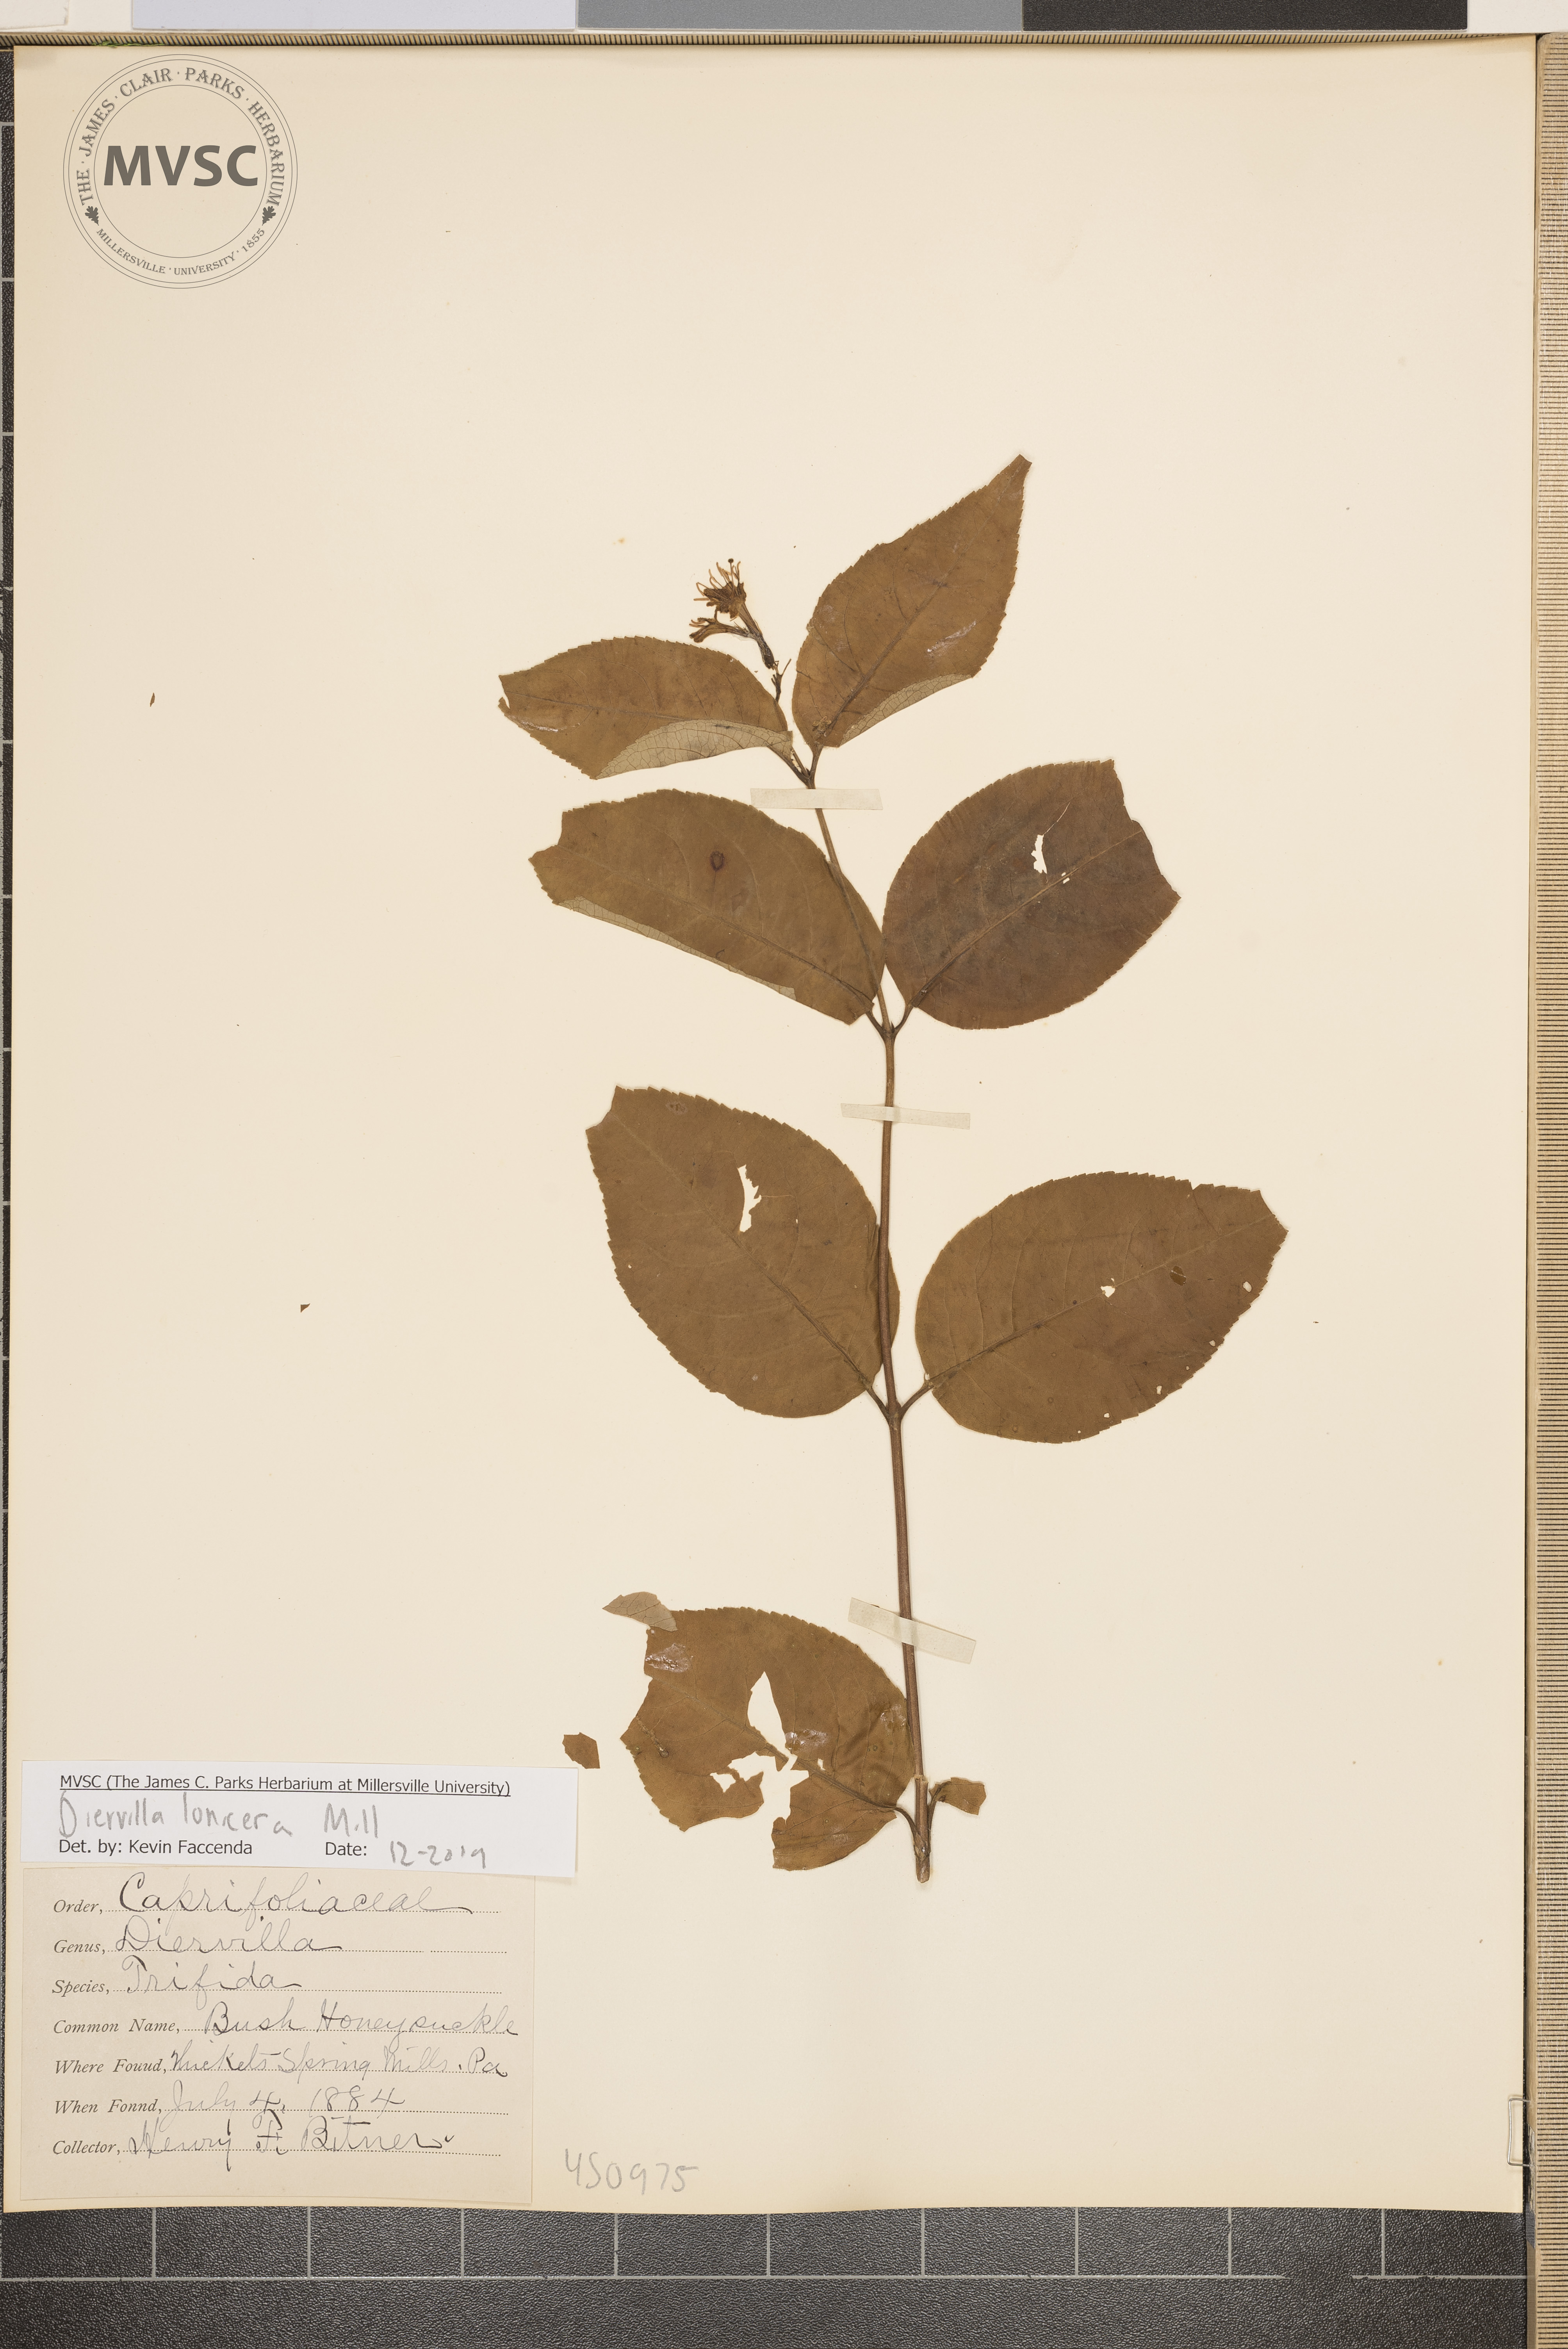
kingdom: Plantae
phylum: Tracheophyta
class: Magnoliopsida
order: Dipsacales
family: Caprifoliaceae
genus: Diervilla
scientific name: Diervilla lonicera
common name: Bush-honeysuckle
